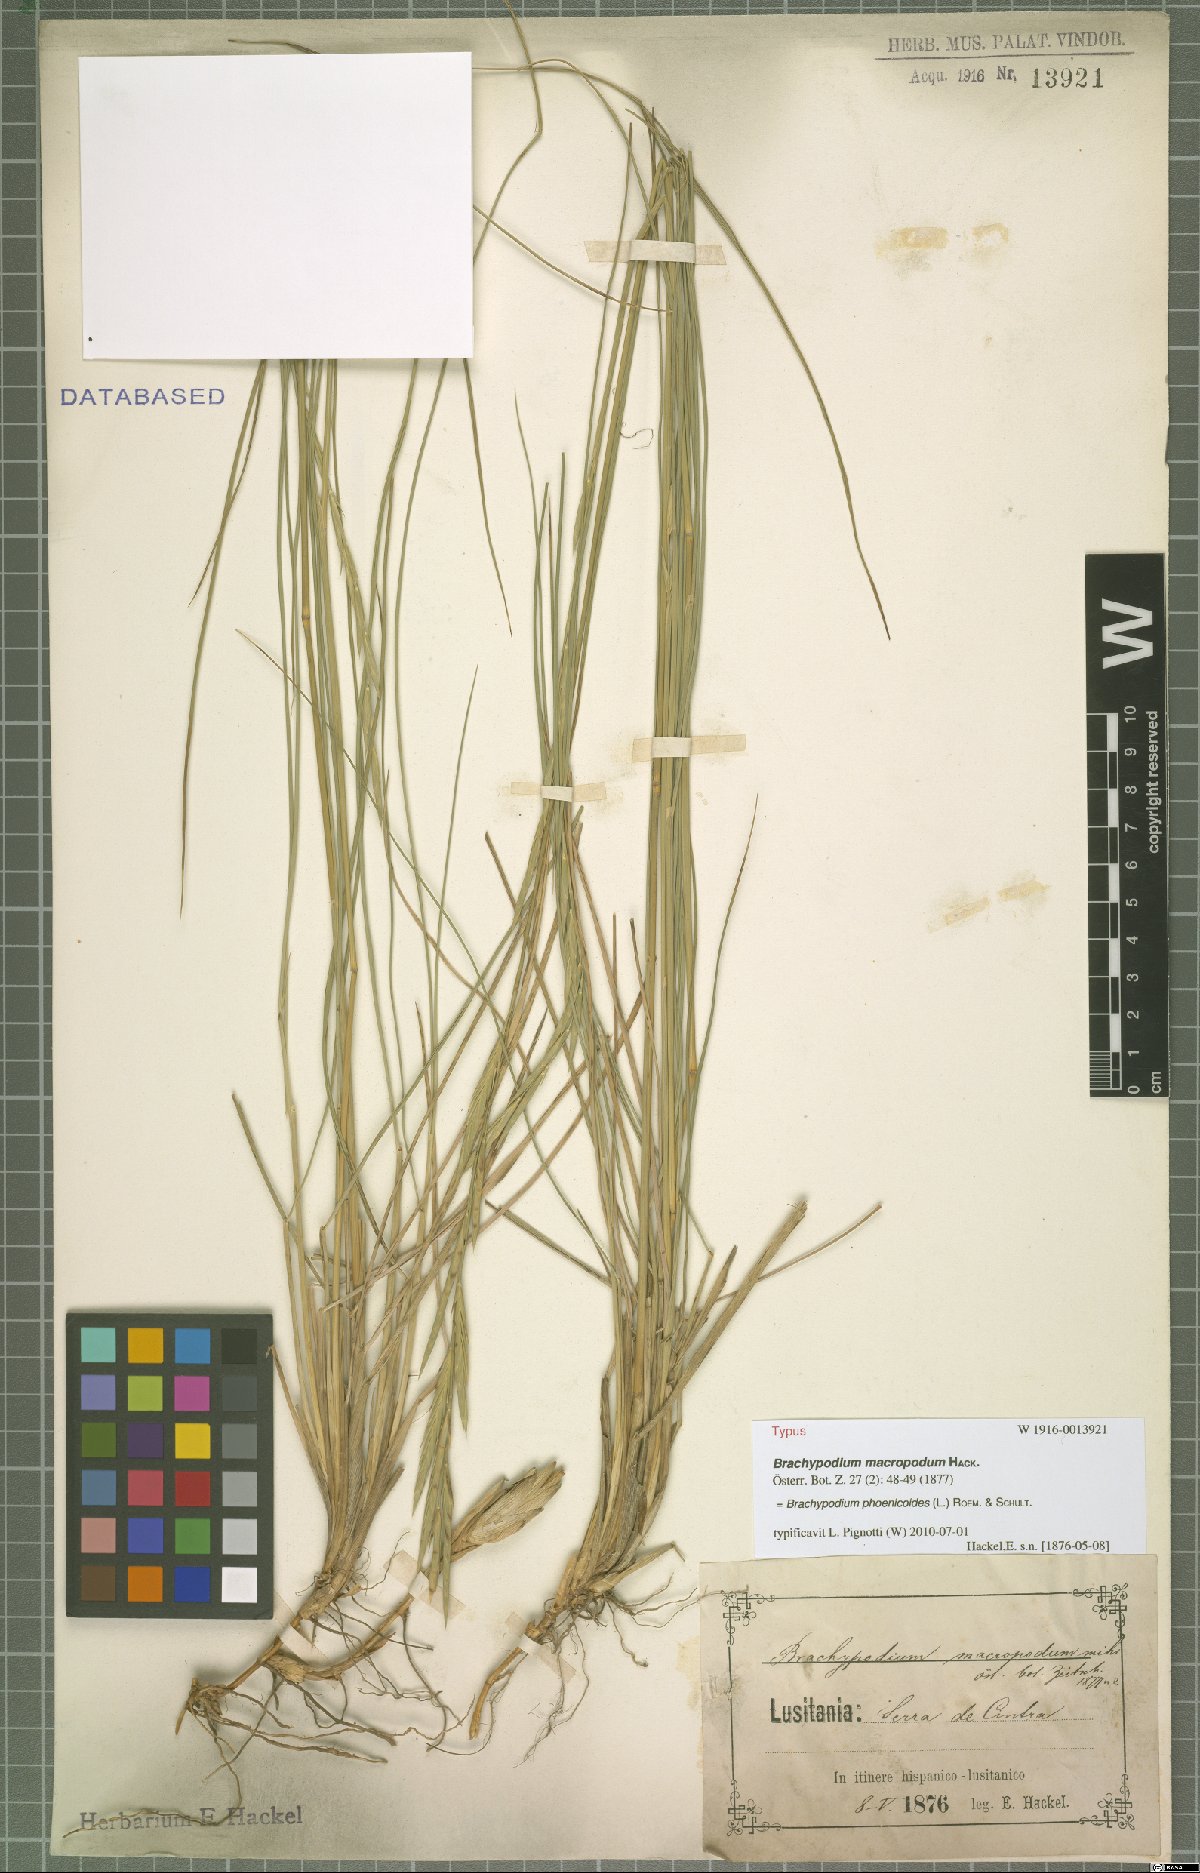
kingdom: Plantae
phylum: Tracheophyta
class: Liliopsida
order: Poales
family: Poaceae
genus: Brachypodium
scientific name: Brachypodium phoenicoides
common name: Thinleaf false brome
